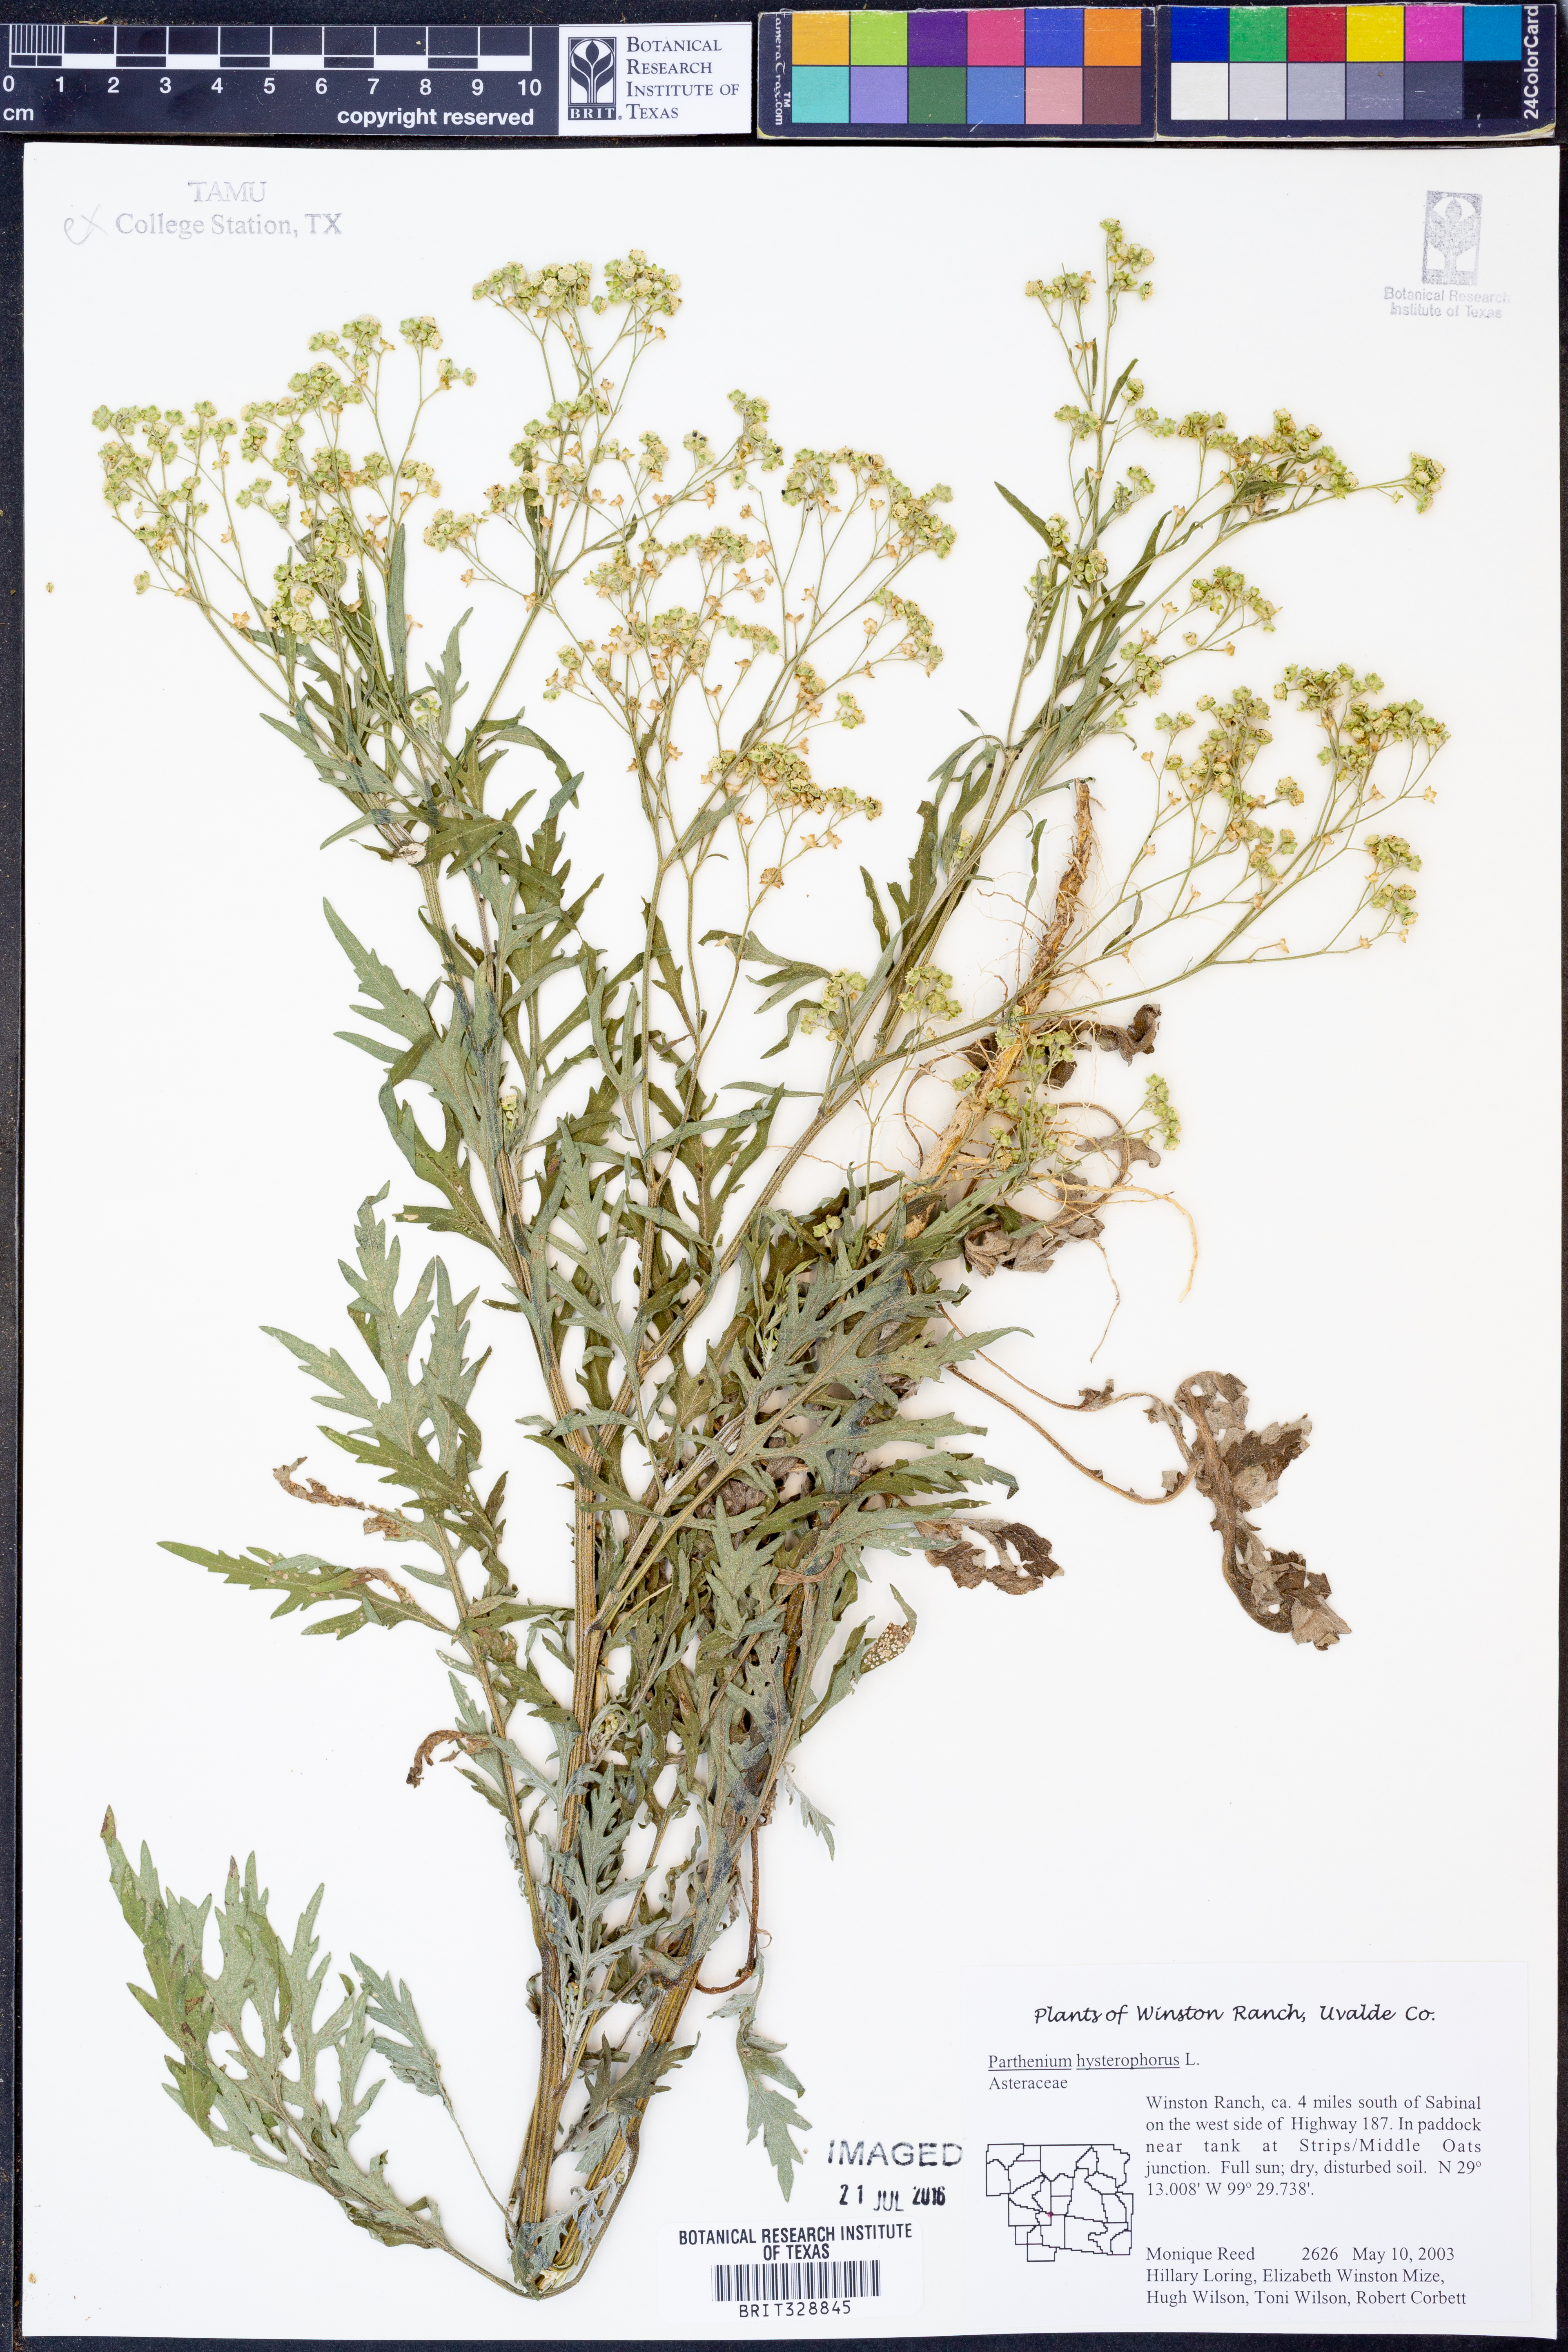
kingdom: Plantae
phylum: Tracheophyta
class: Magnoliopsida
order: Asterales
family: Asteraceae
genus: Parthenium
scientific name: Parthenium hysterophorus
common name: Santa maria feverfew
